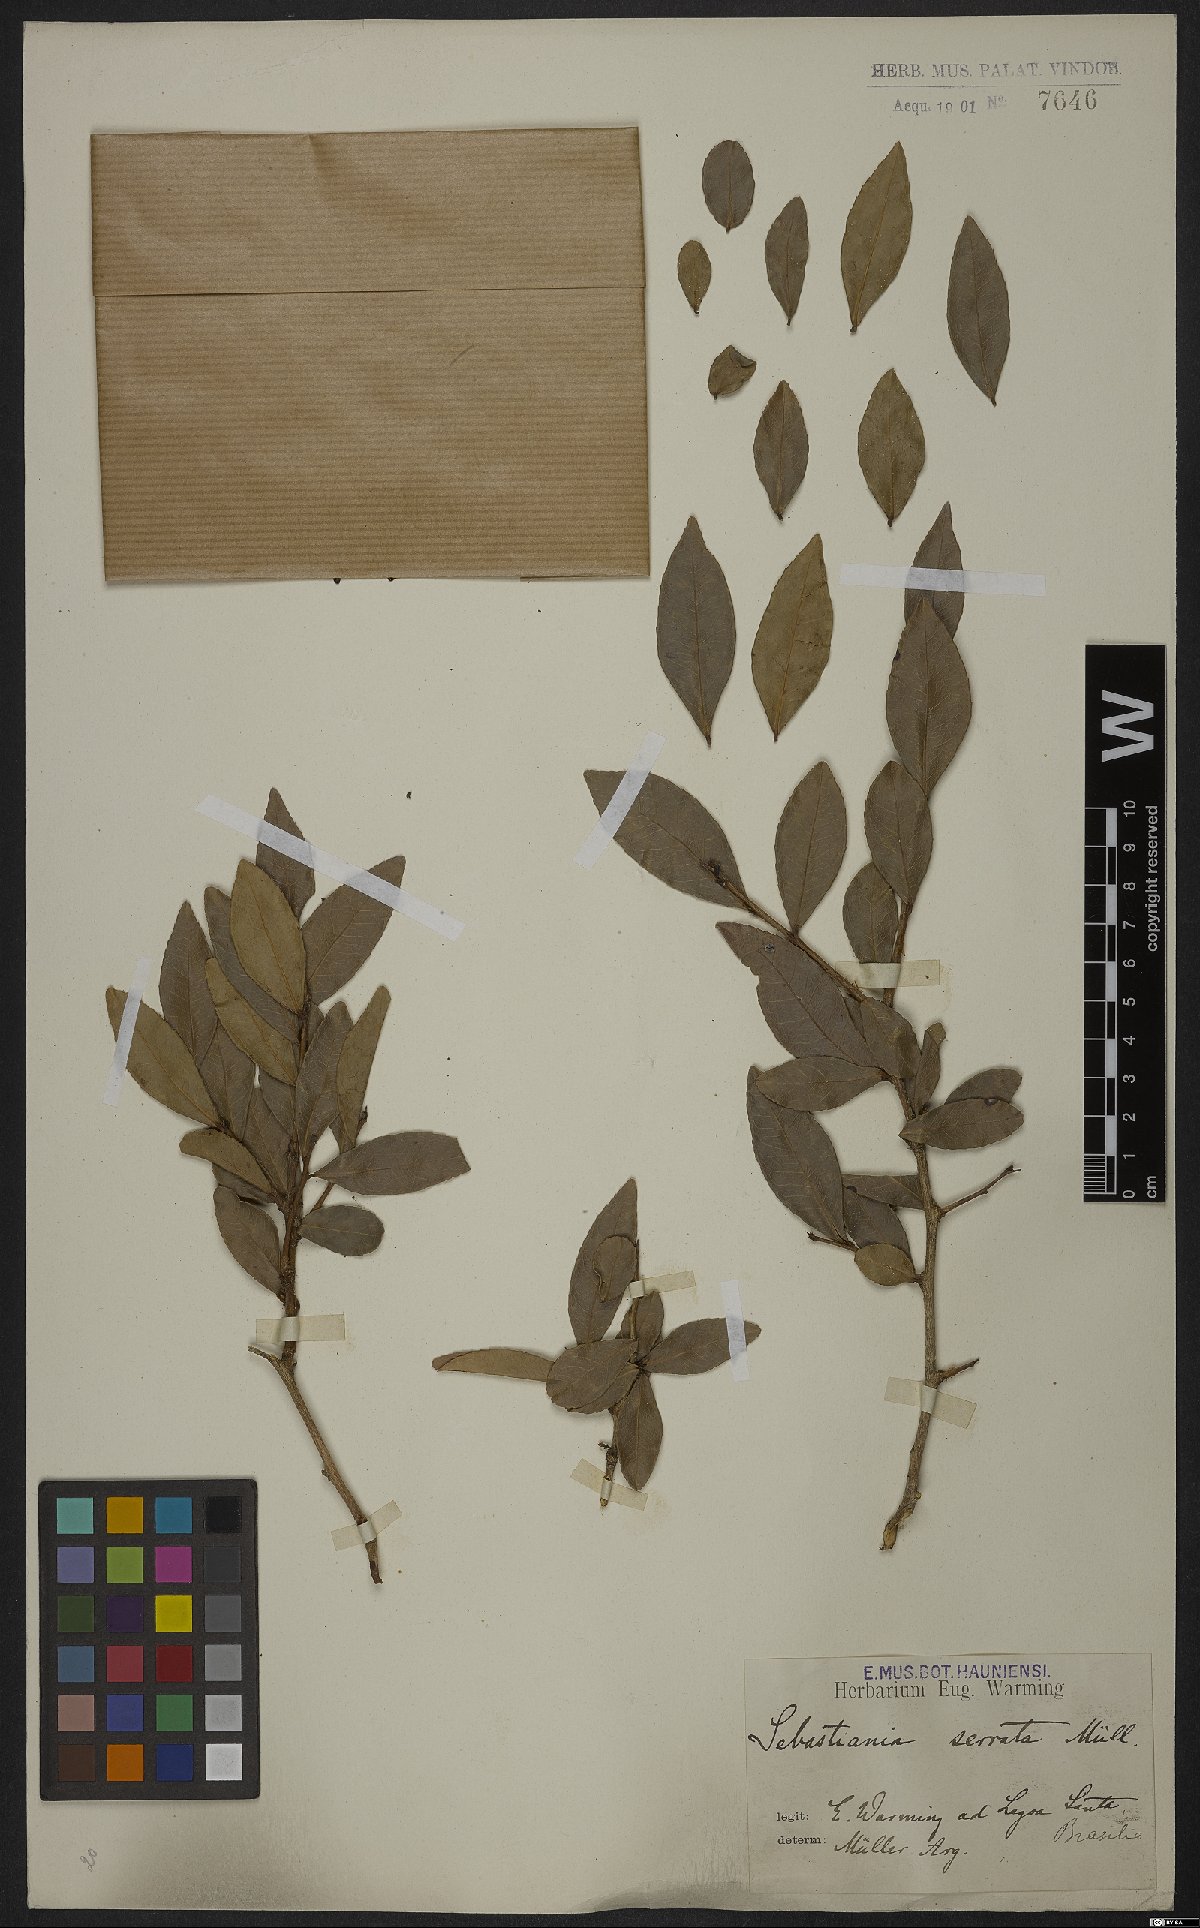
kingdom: Plantae
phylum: Tracheophyta
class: Magnoliopsida
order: Malpighiales
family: Euphorbiaceae
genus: Sebastiania
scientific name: Sebastiania serrata
